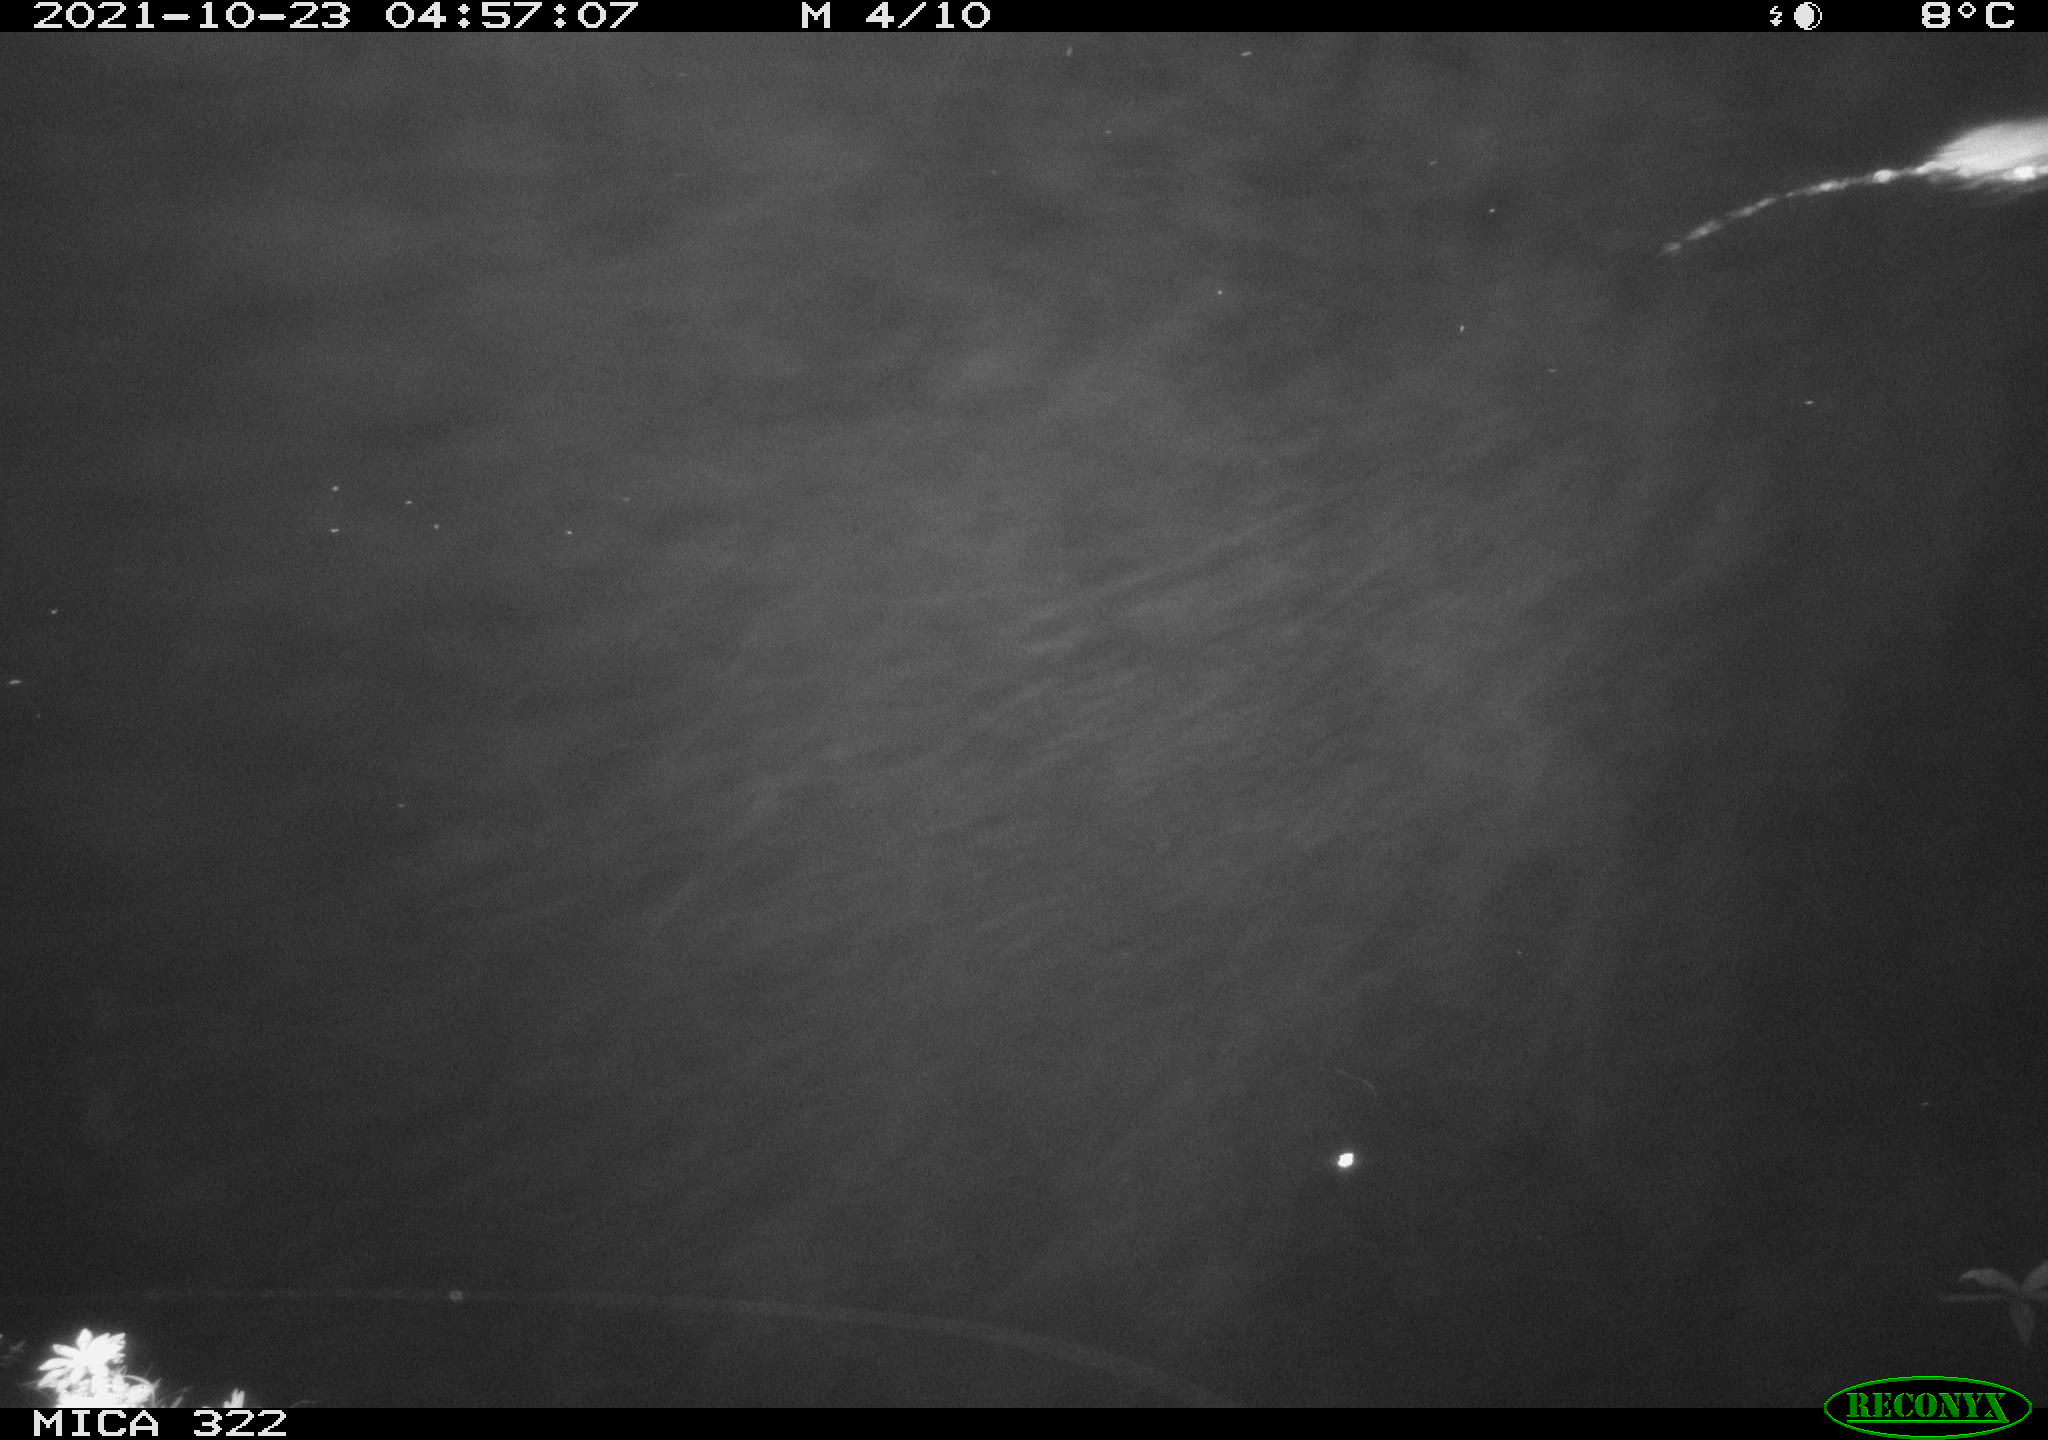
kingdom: Animalia
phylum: Chordata
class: Mammalia
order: Rodentia
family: Muridae
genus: Rattus
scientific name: Rattus norvegicus
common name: Brown rat
